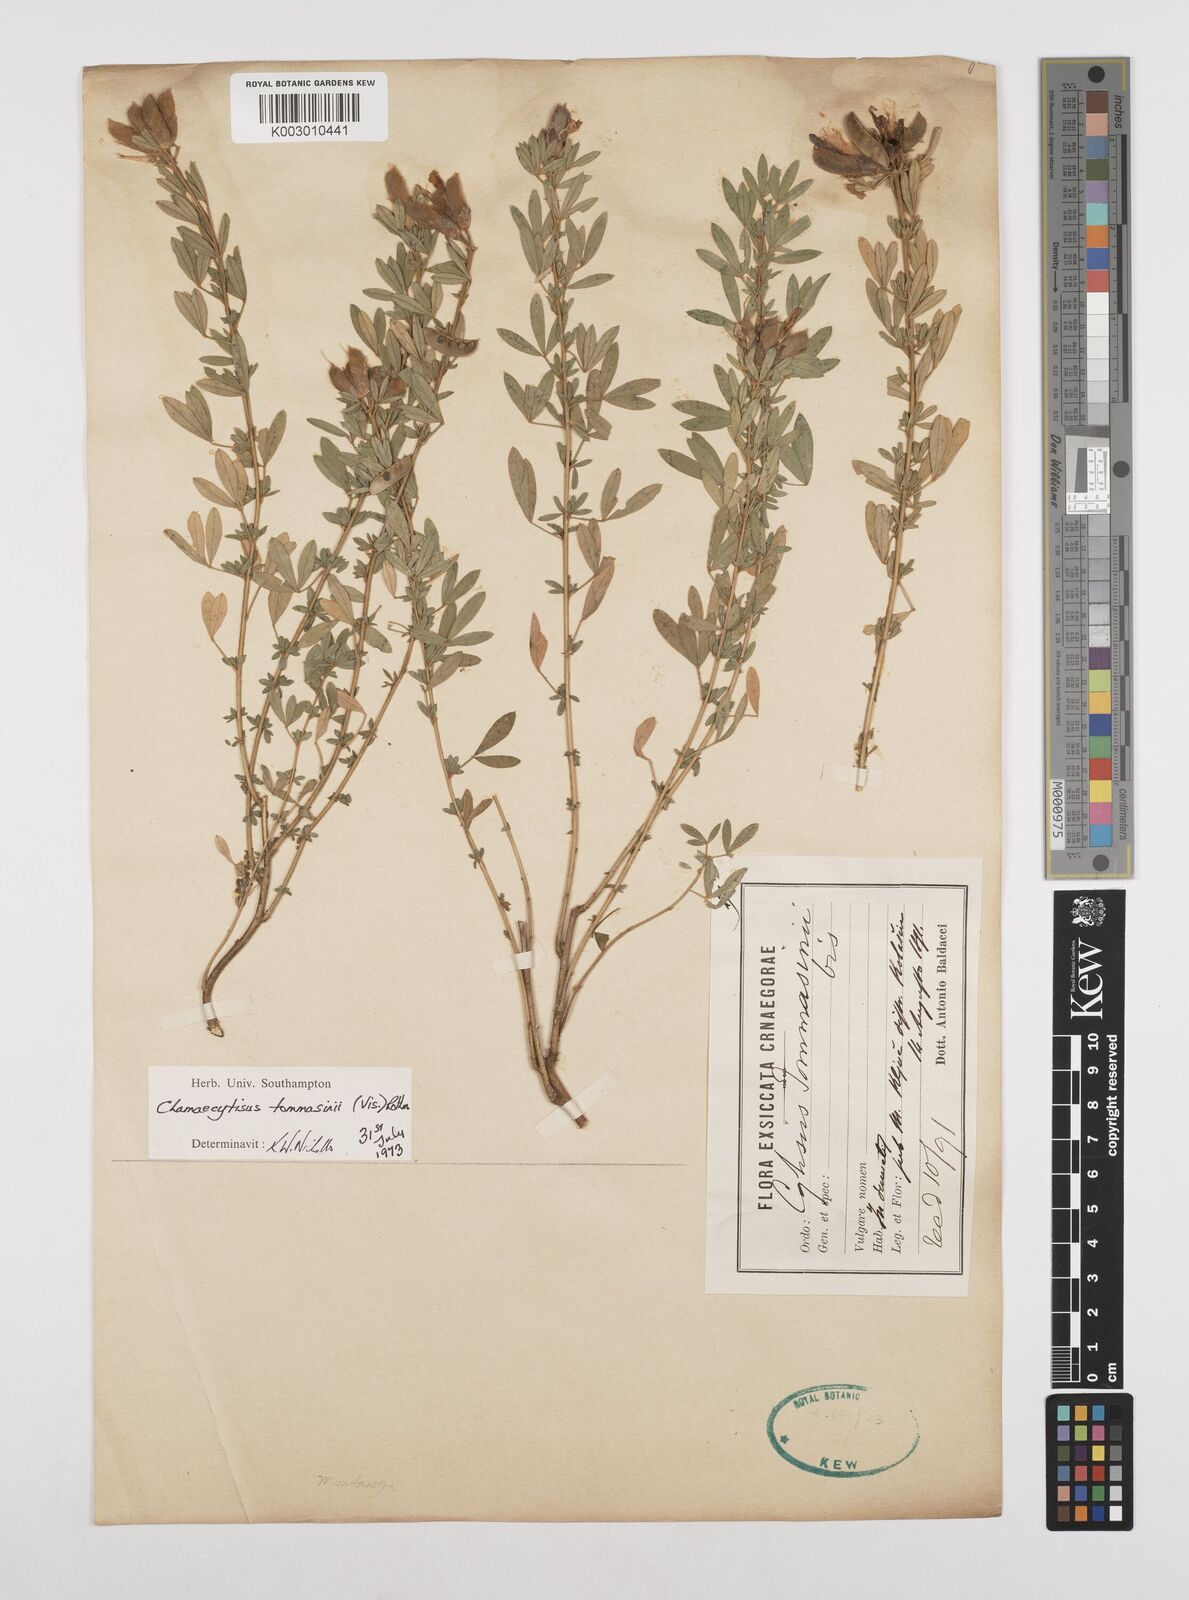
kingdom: Plantae
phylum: Tracheophyta
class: Magnoliopsida
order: Fabales
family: Fabaceae
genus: Chamaecytisus
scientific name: Chamaecytisus tommasinii
